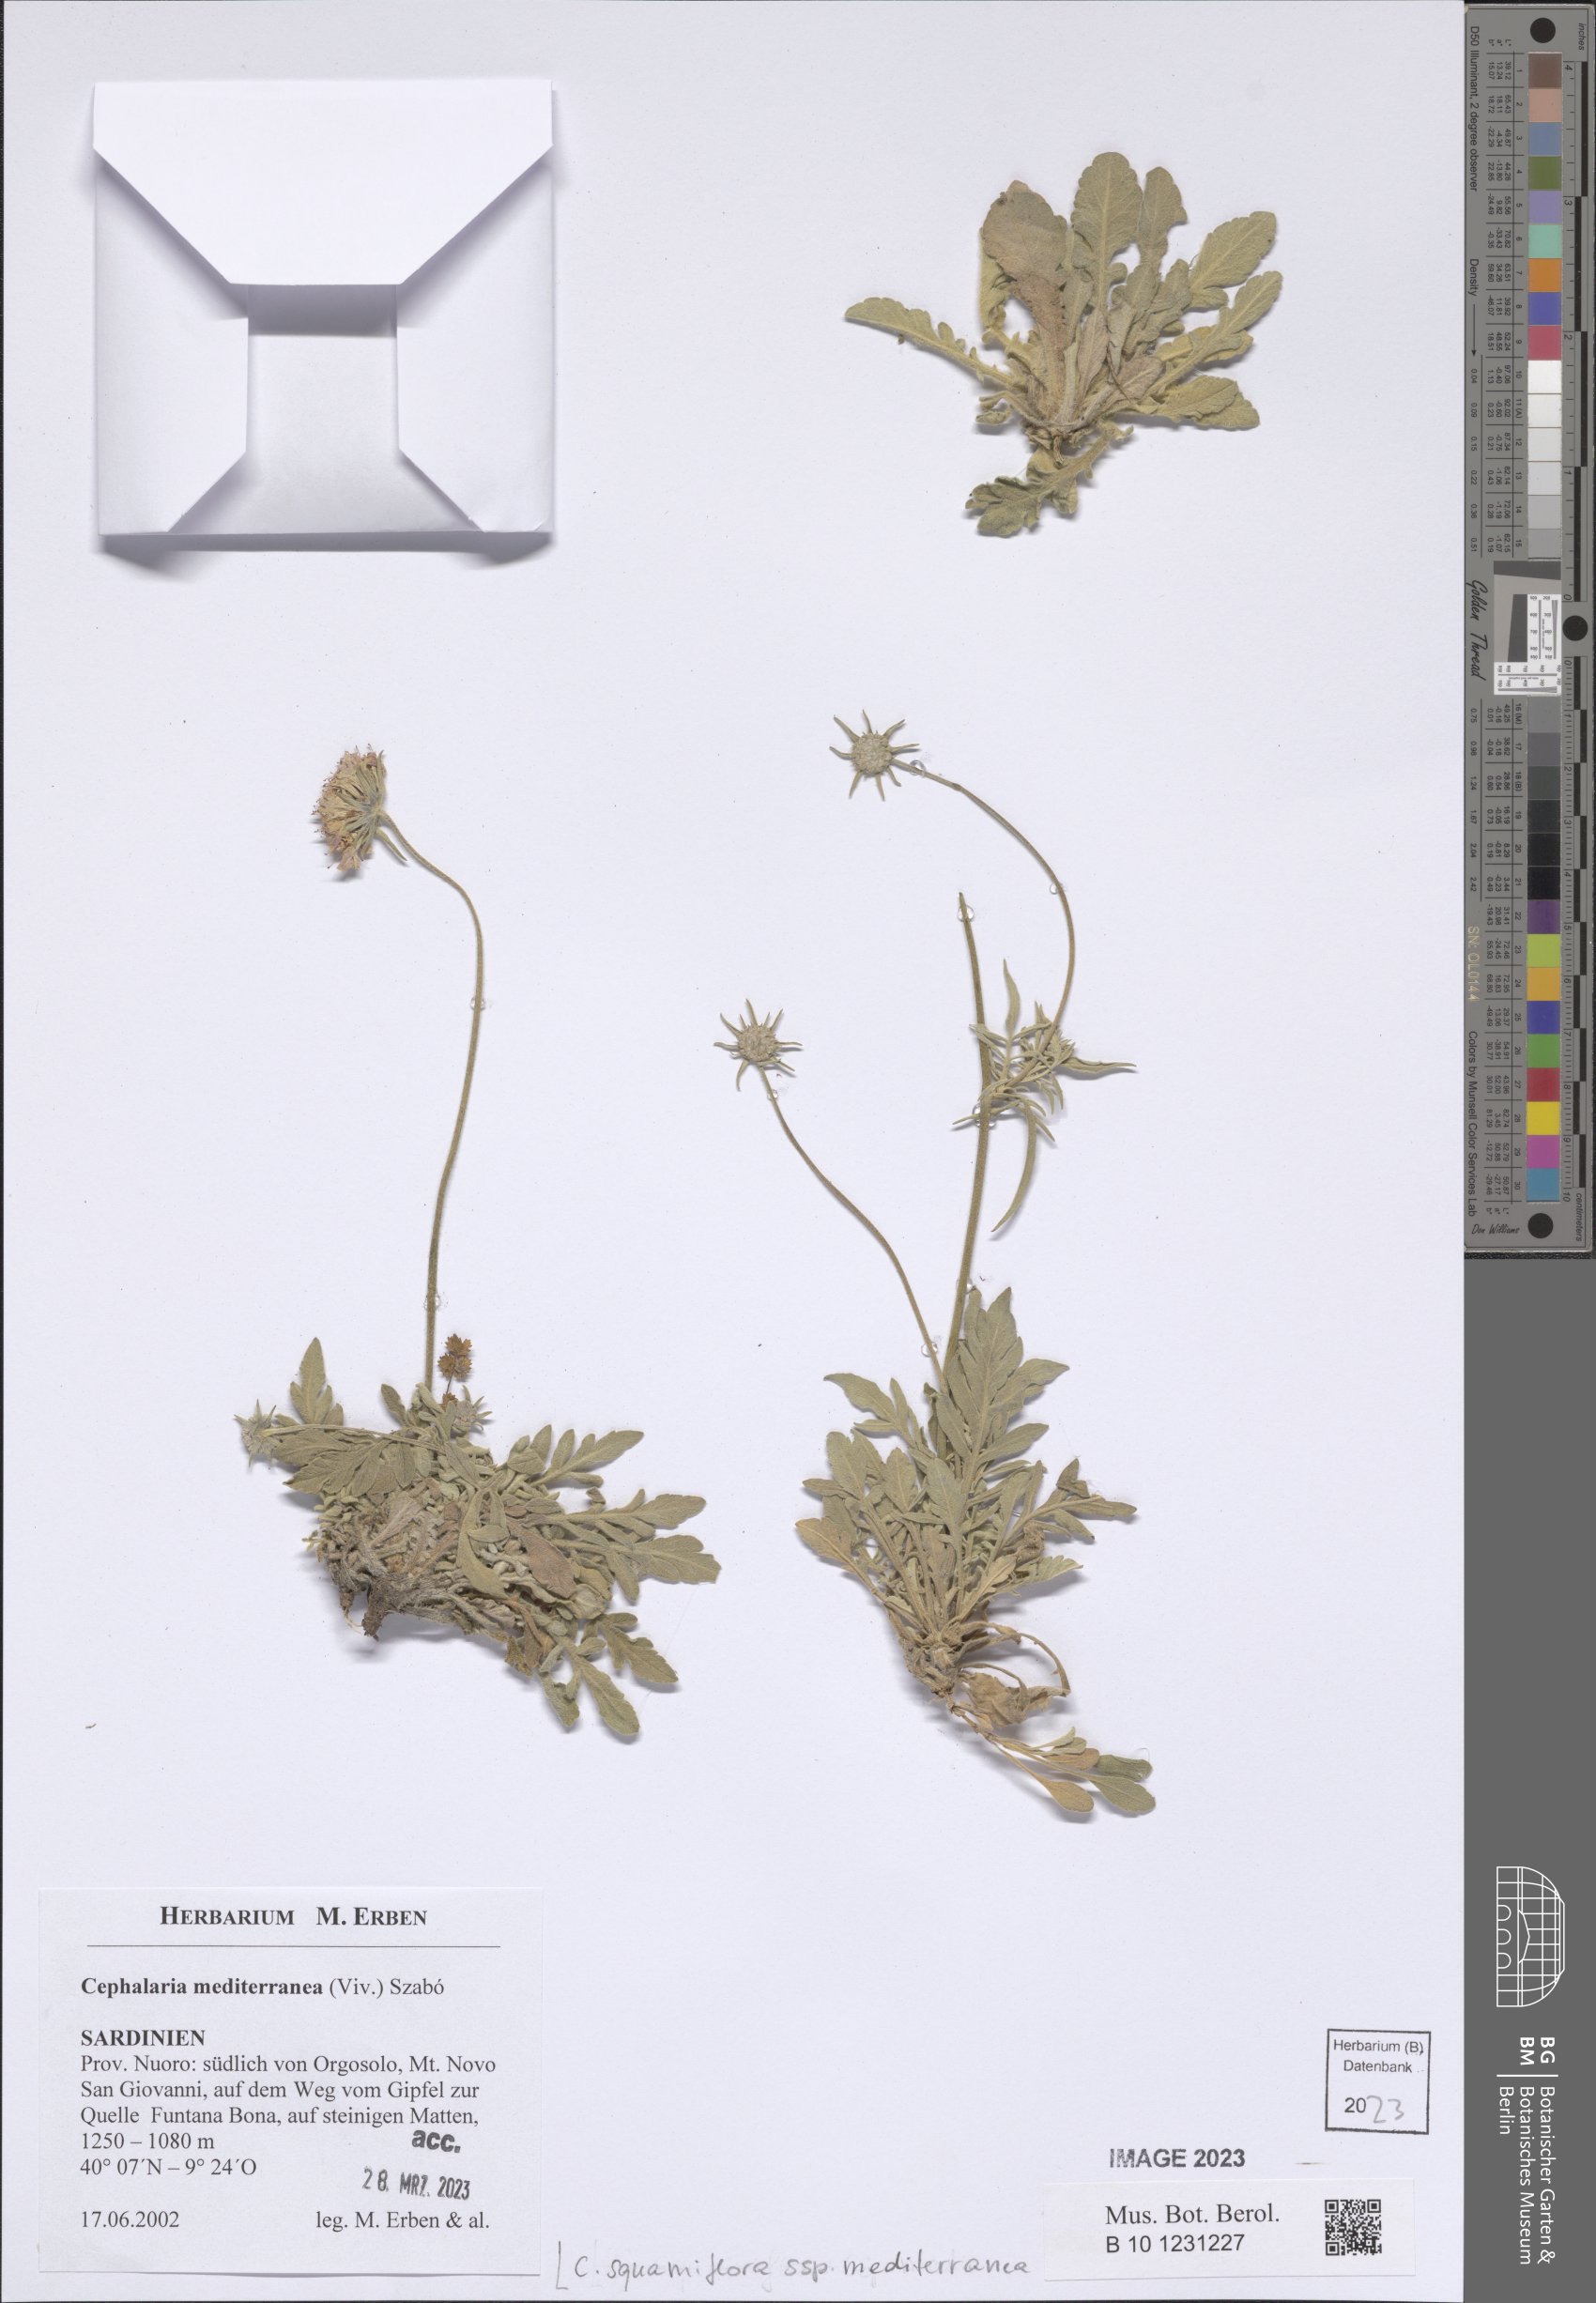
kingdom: Plantae
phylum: Tracheophyta
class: Magnoliopsida
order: Dipsacales
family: Caprifoliaceae
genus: Cephalaria
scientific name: Cephalaria squamiflora
